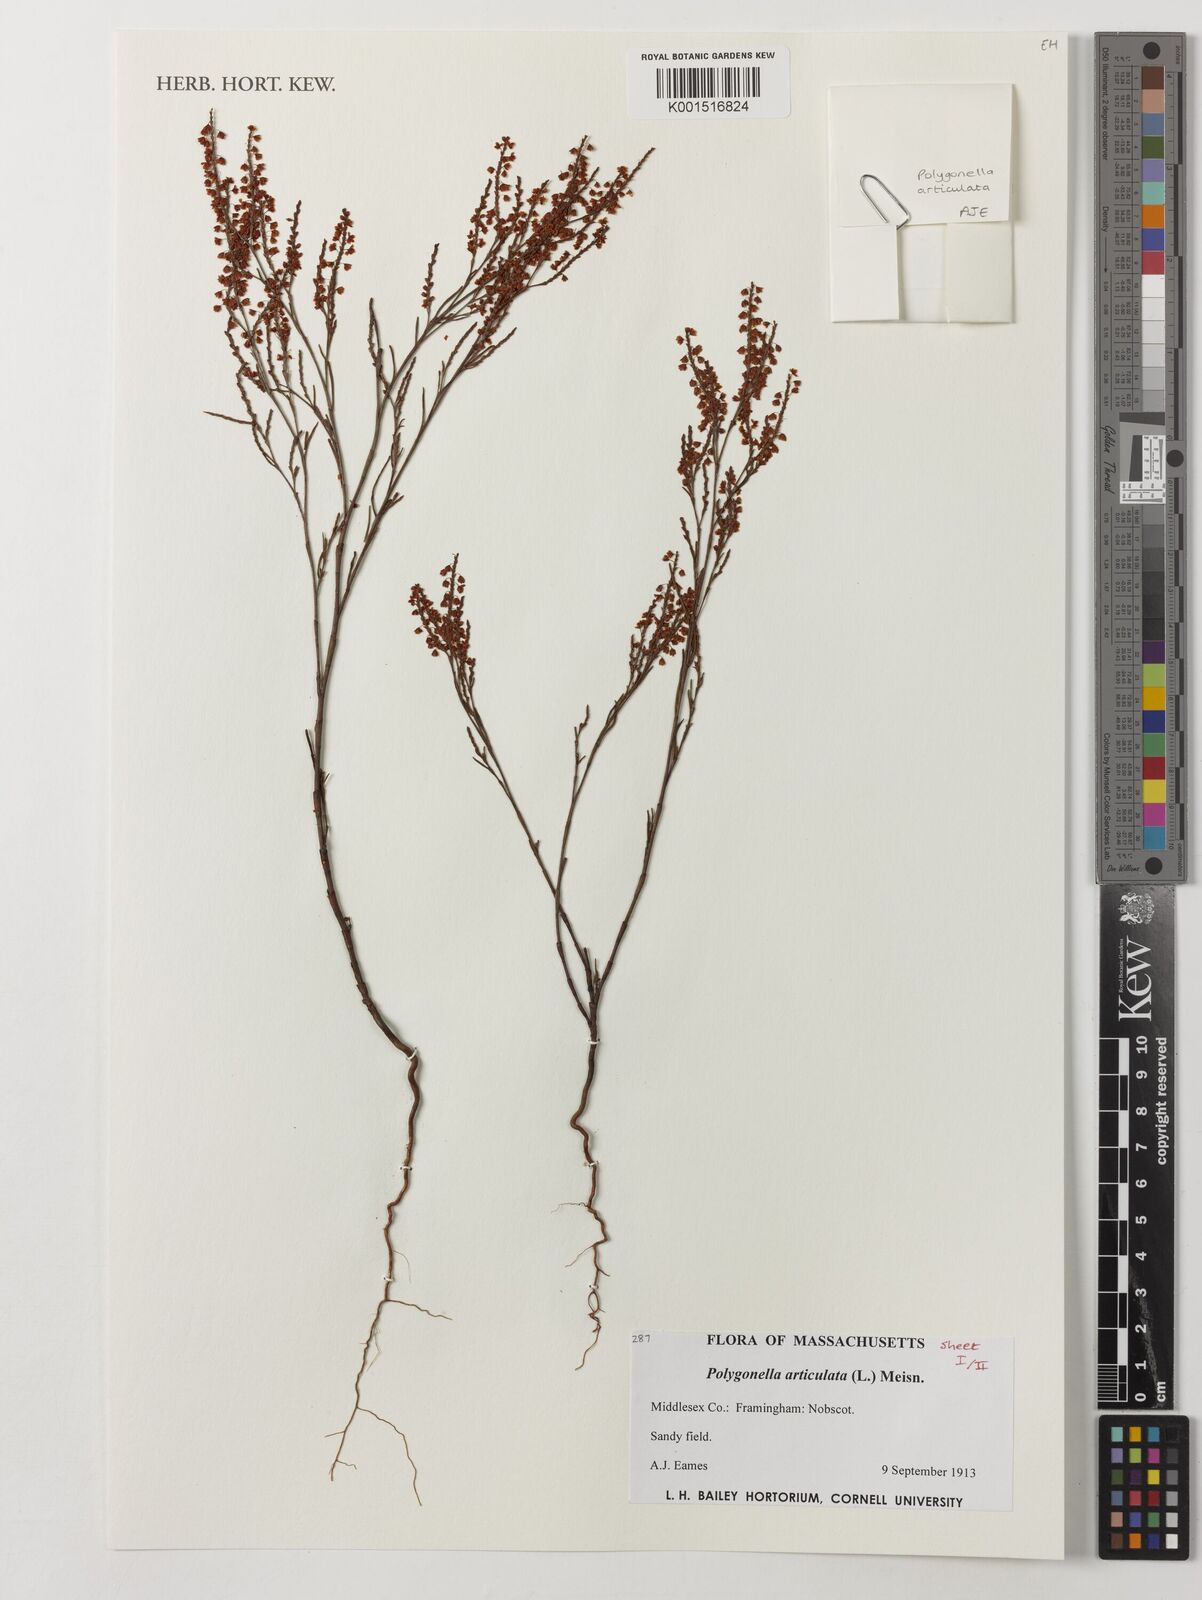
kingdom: Plantae
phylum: Tracheophyta
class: Magnoliopsida
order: Caryophyllales
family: Polygonaceae
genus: Polygonella
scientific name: Polygonella articulata
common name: Coastal jointweed
